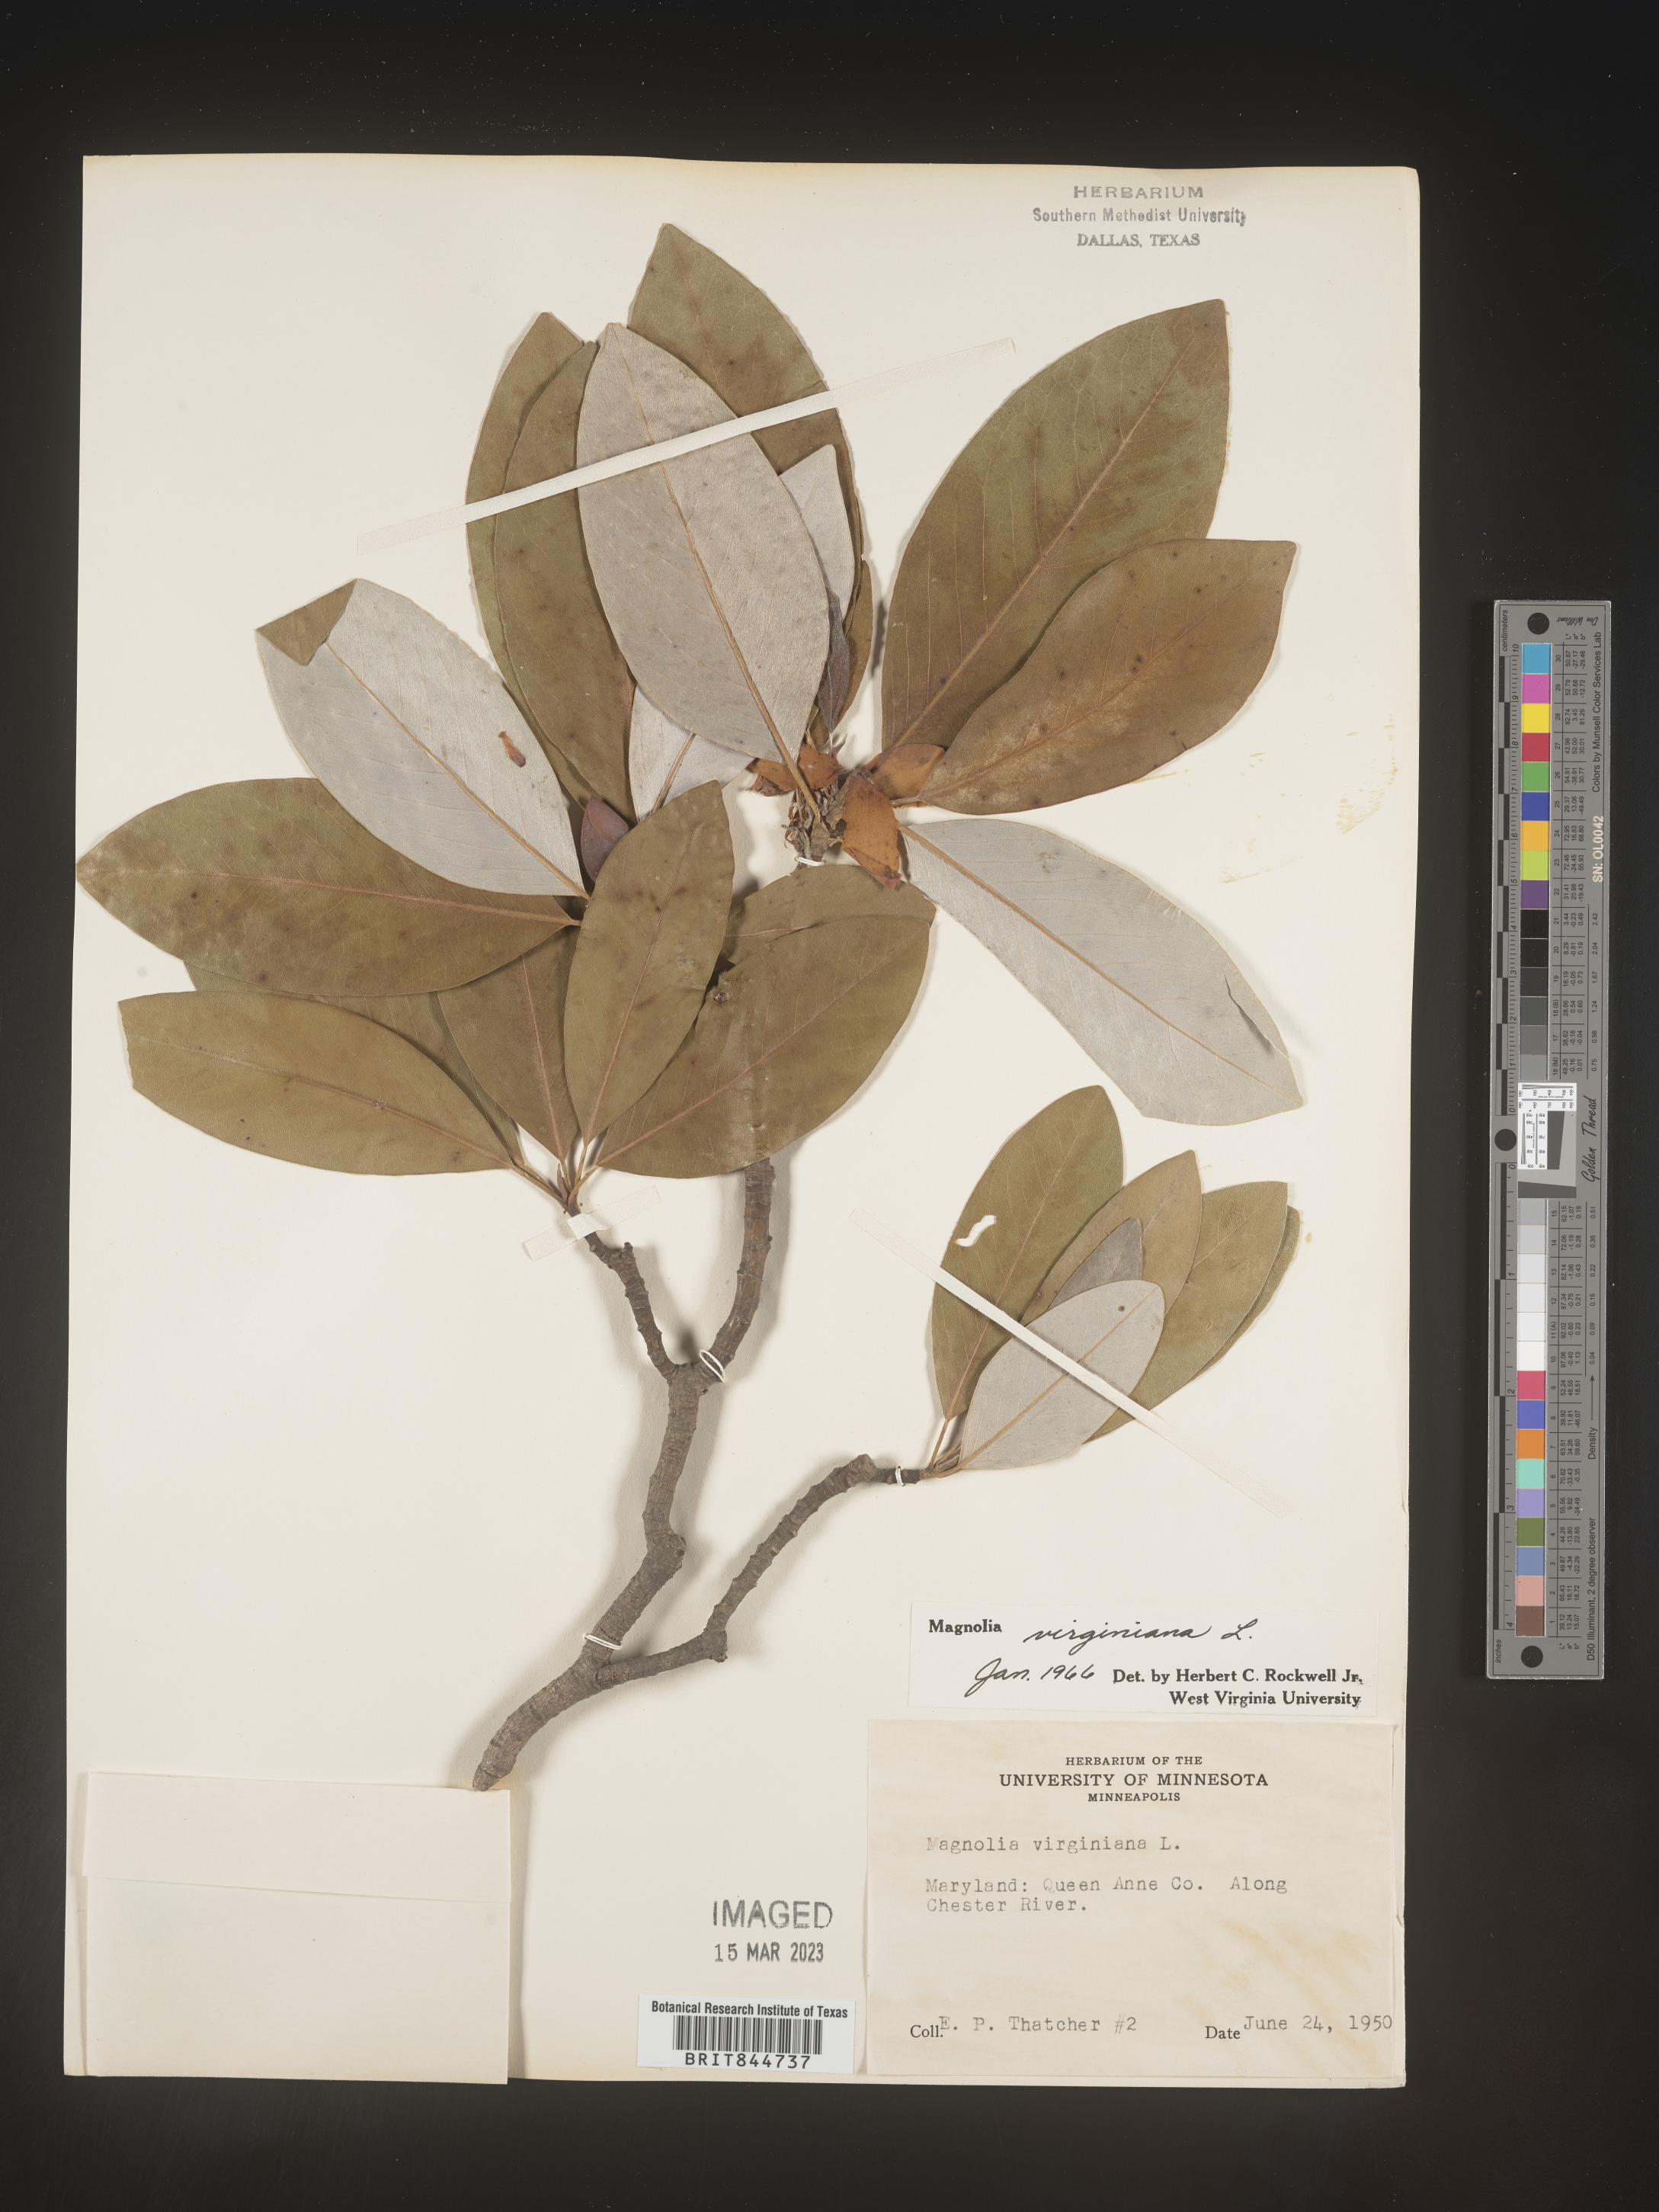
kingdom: Plantae
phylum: Tracheophyta
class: Magnoliopsida
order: Magnoliales
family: Magnoliaceae
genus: Magnolia
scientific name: Magnolia virginiana
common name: Swamp bay
